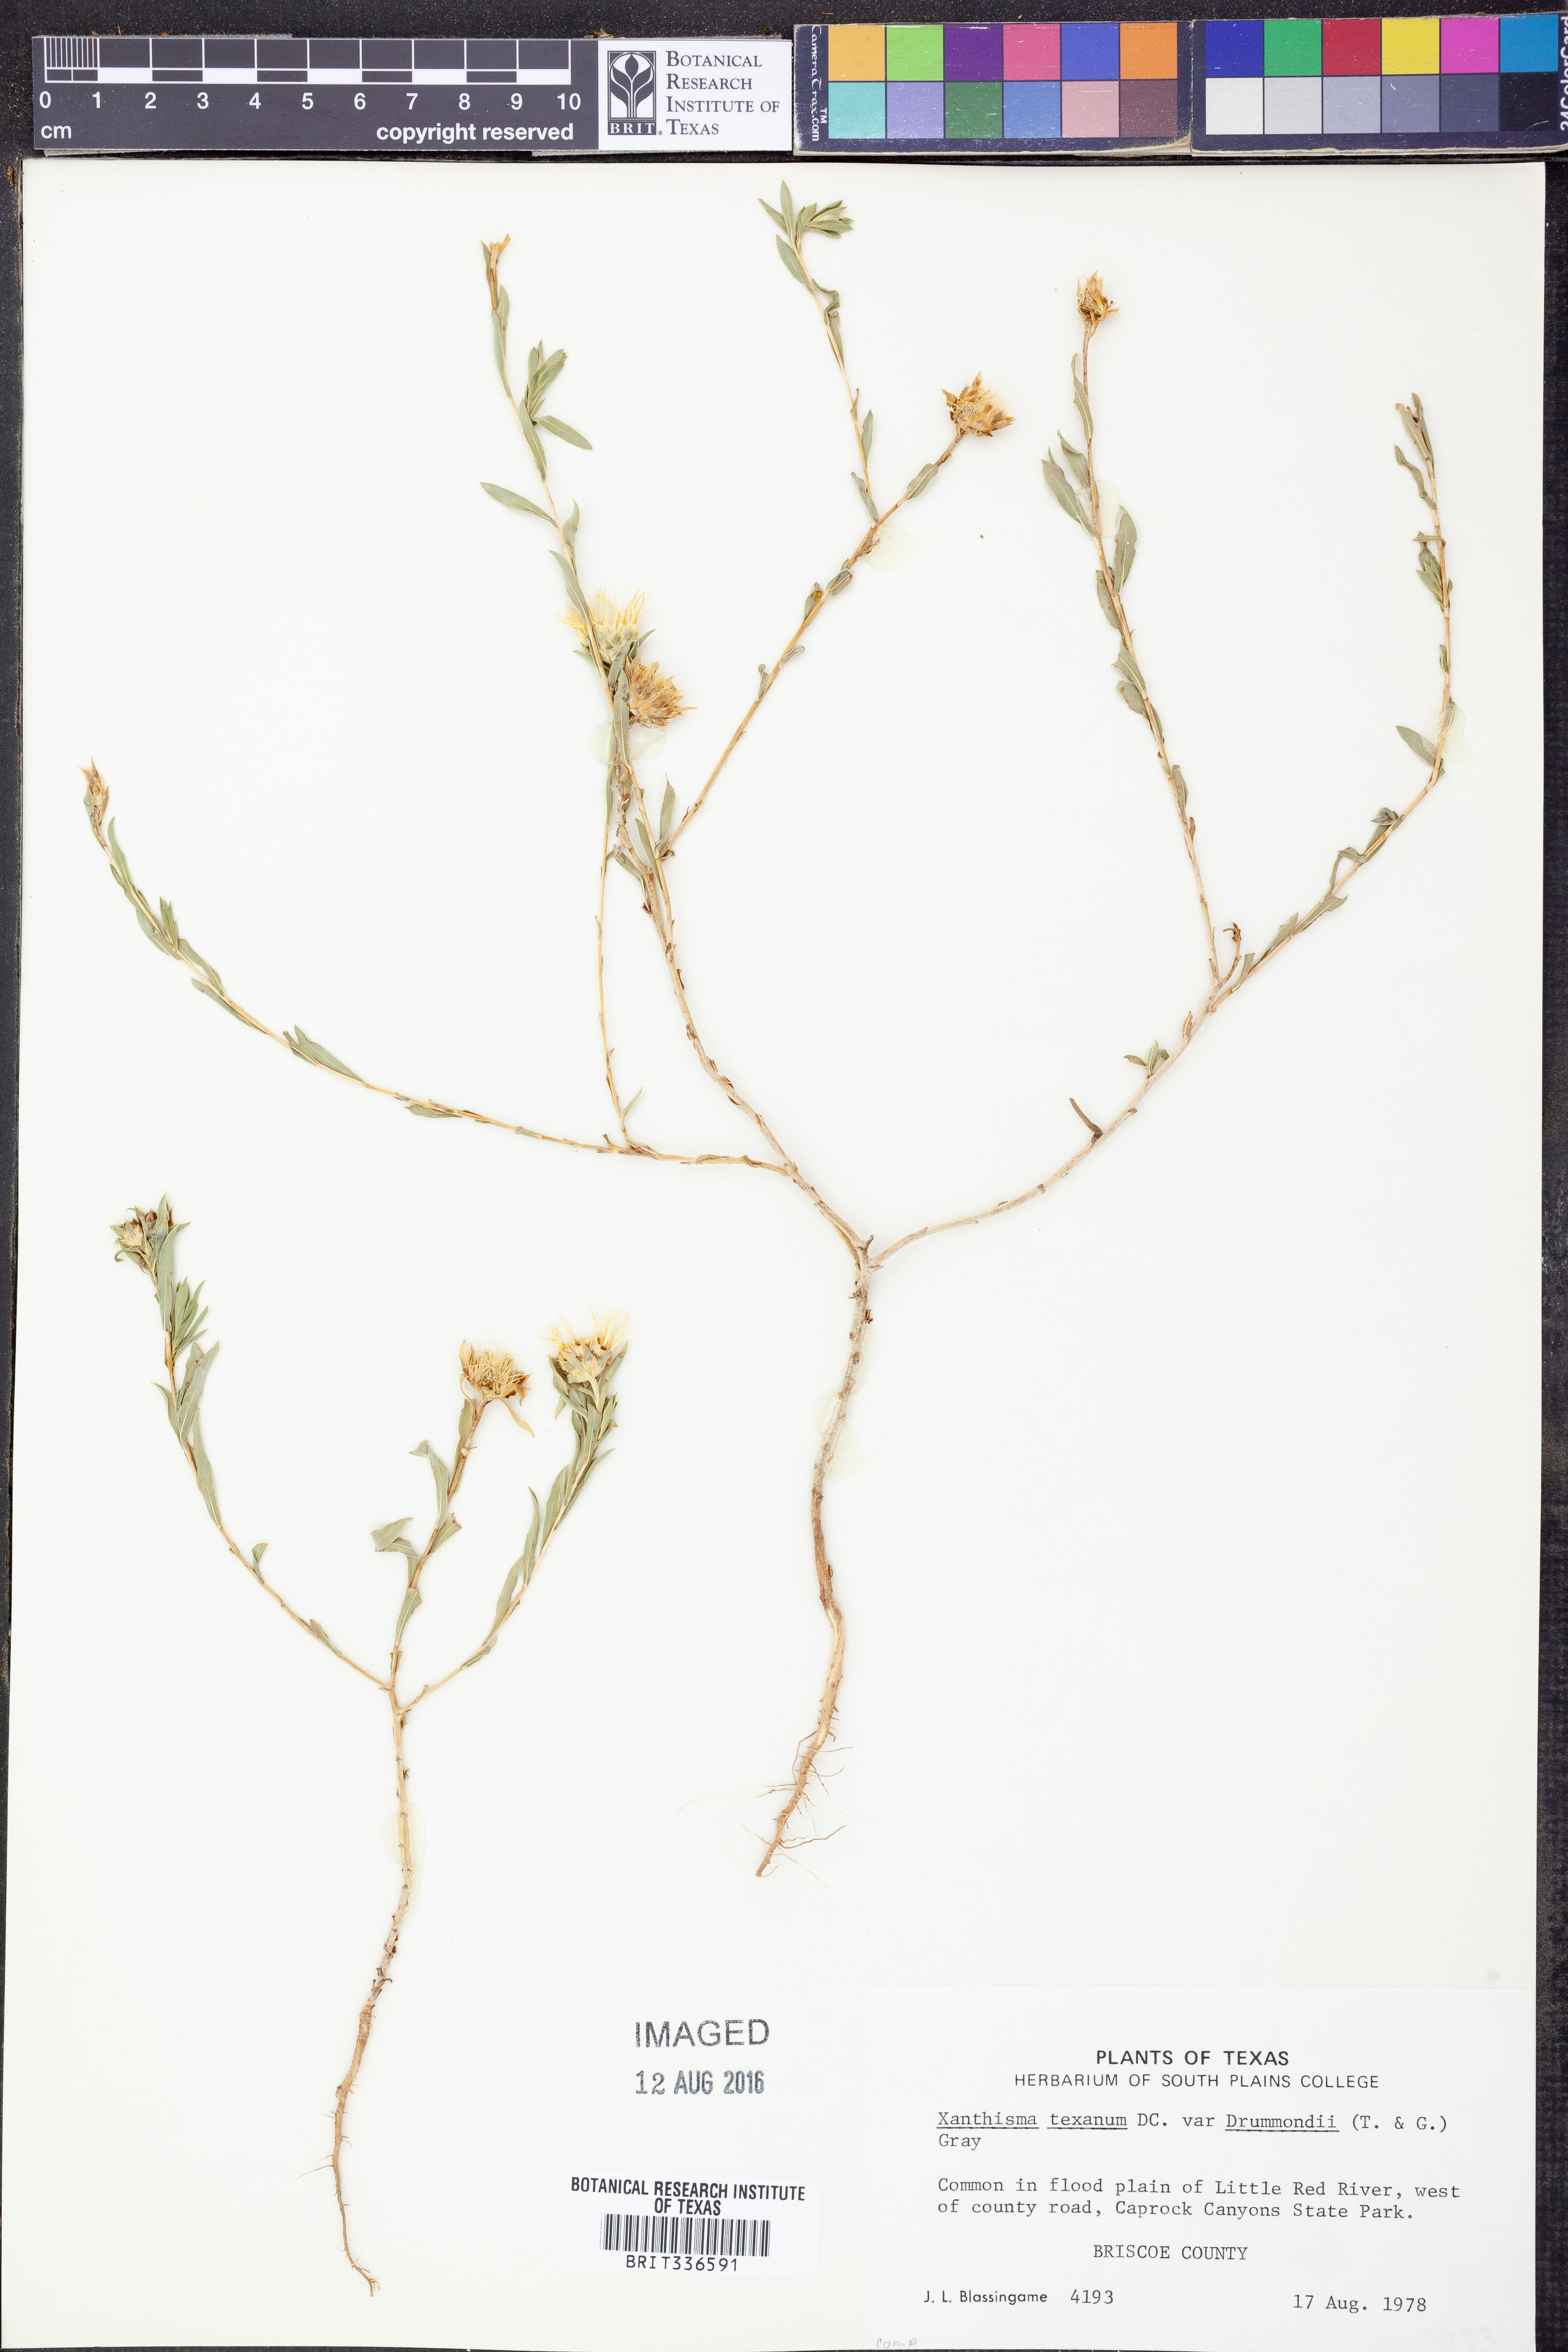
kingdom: Plantae
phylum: Tracheophyta
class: Magnoliopsida
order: Asterales
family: Asteraceae
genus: Xanthisma
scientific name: Xanthisma texanum
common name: Texas sleepy daisy
